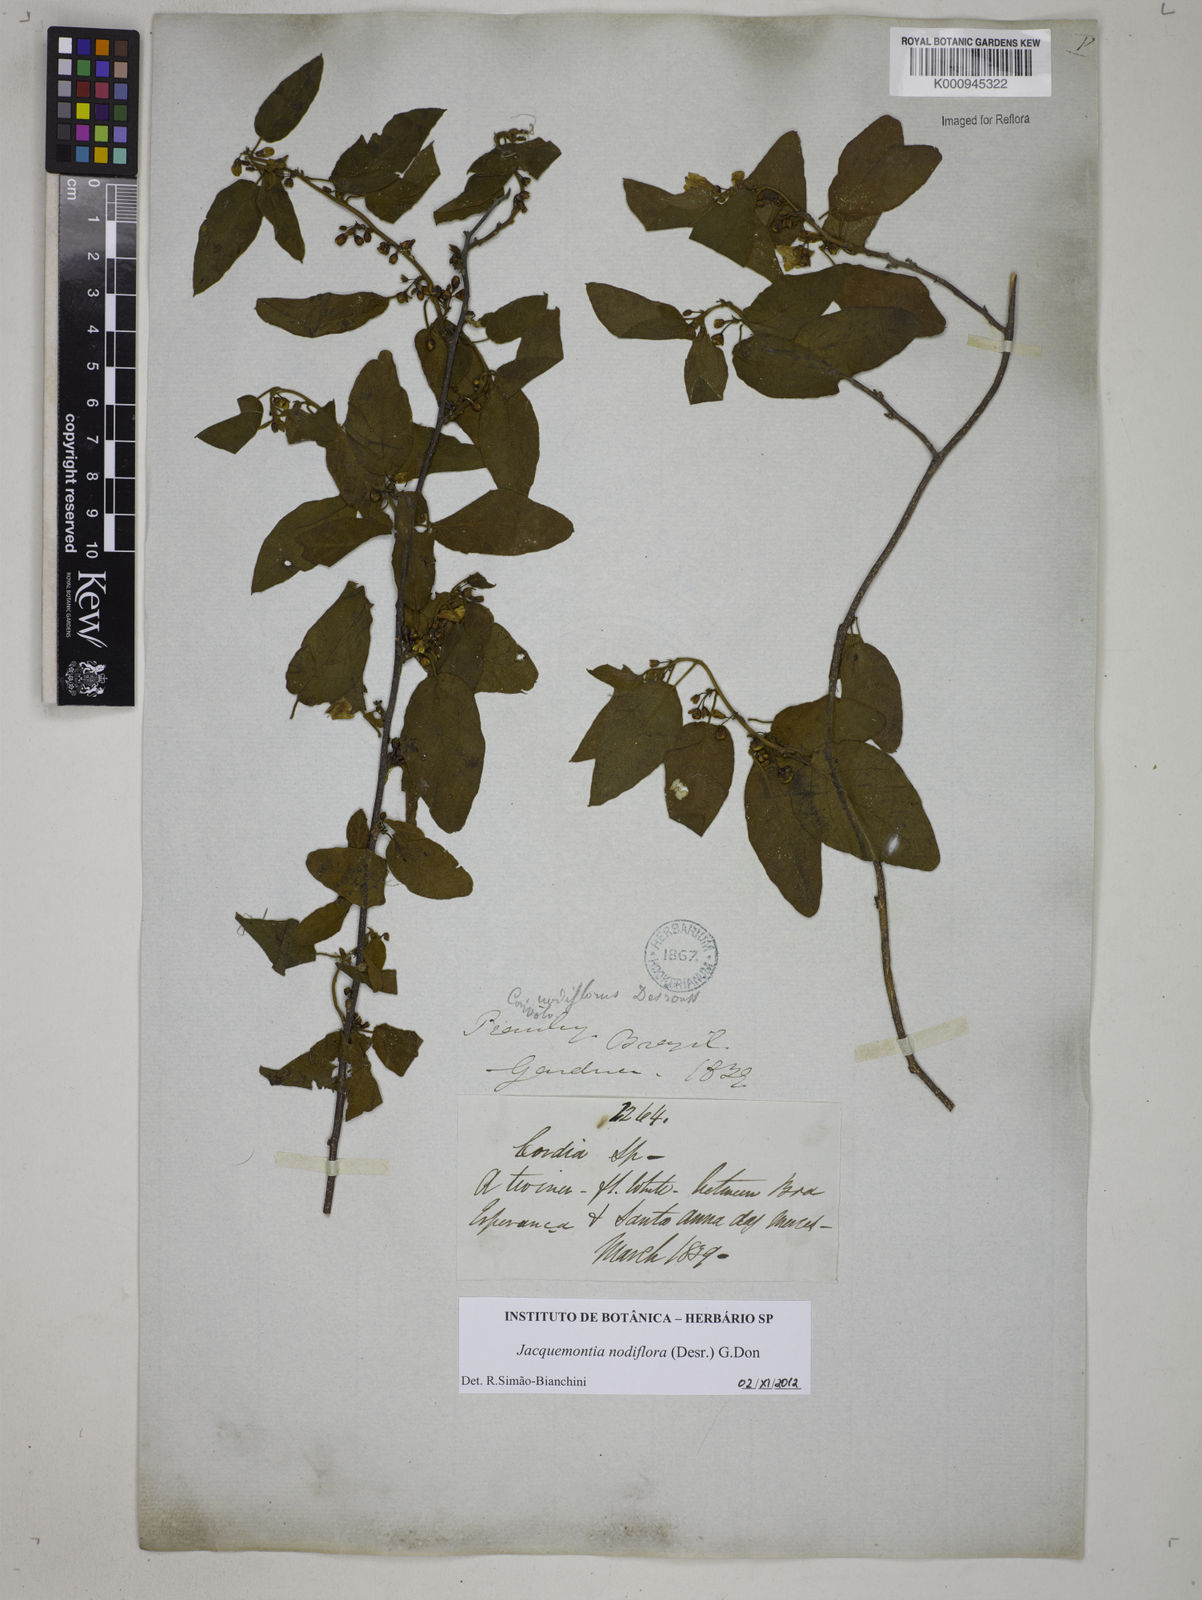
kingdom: Plantae
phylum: Tracheophyta
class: Magnoliopsida
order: Solanales
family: Convolvulaceae
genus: Jacquemontia
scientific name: Jacquemontia nodiflora
